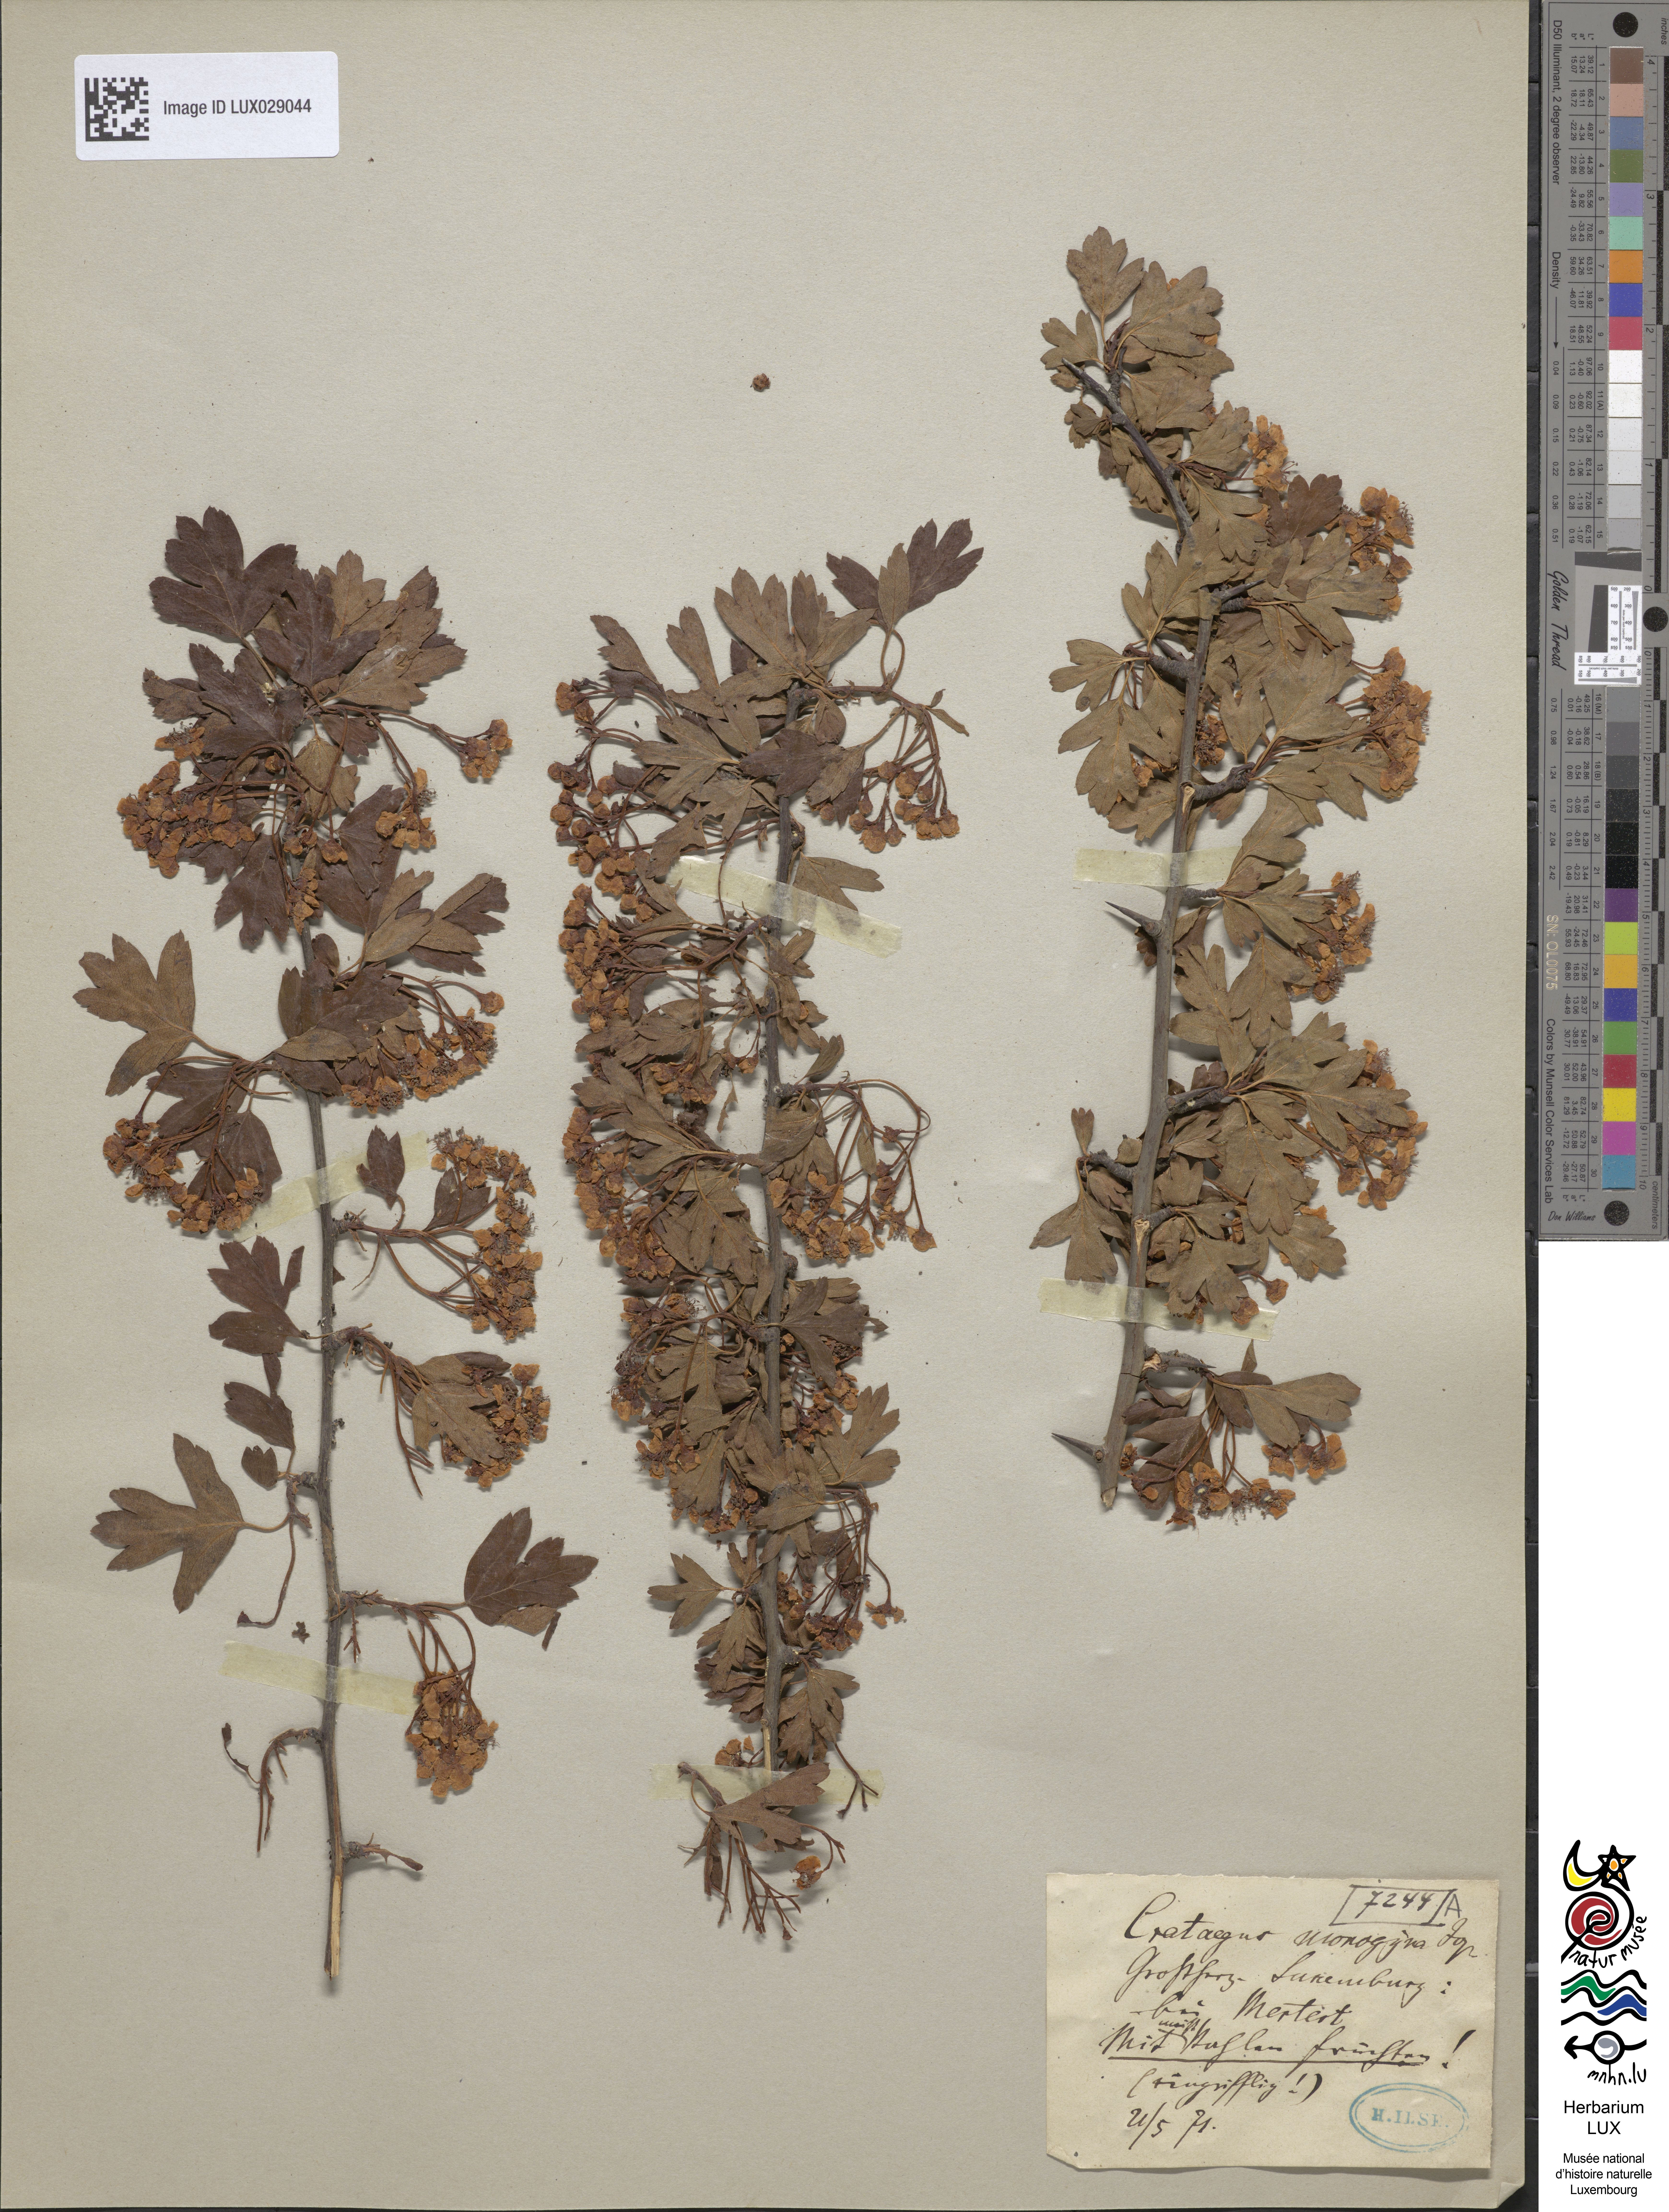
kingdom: Plantae
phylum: Tracheophyta
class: Magnoliopsida
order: Rosales
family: Rosaceae
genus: Crataegus
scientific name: Crataegus monogyna
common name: Hawthorn
